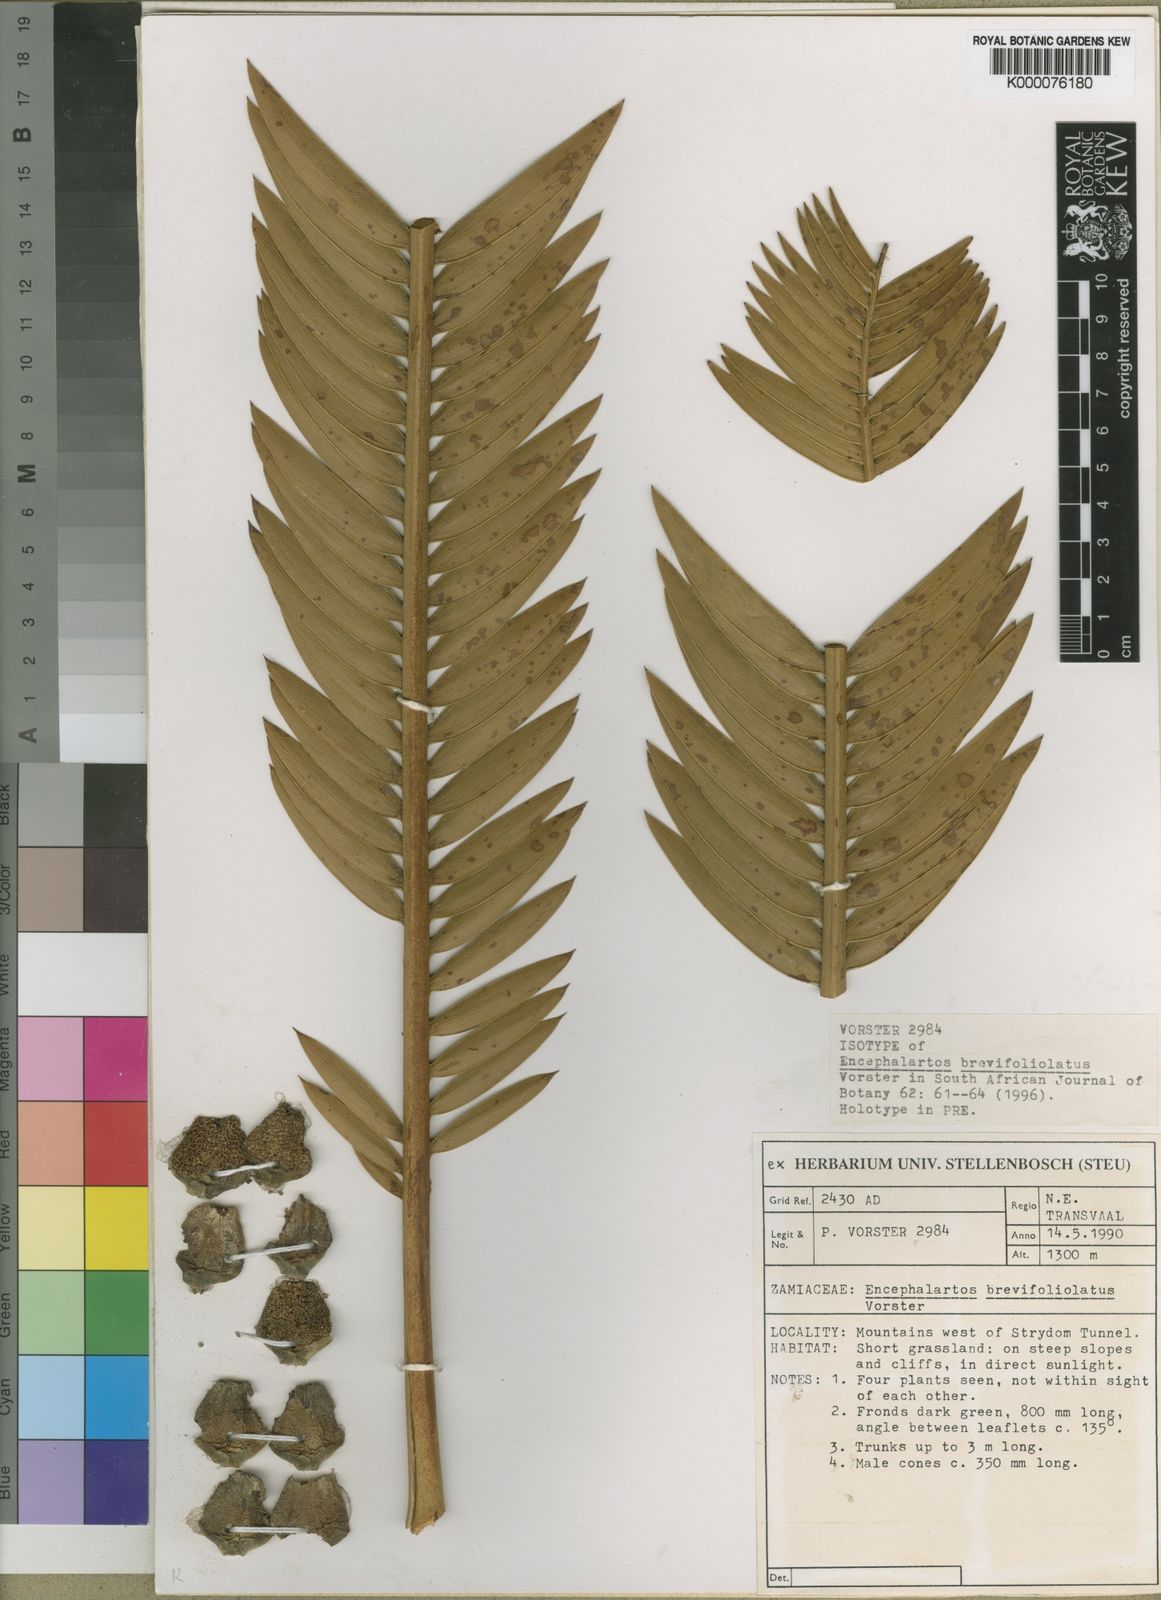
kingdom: Plantae
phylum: Tracheophyta
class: Cycadopsida
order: Cycadales
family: Zamiaceae
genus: Encephalartos
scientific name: Encephalartos brevifoliolatus
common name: Escarpment cycad
